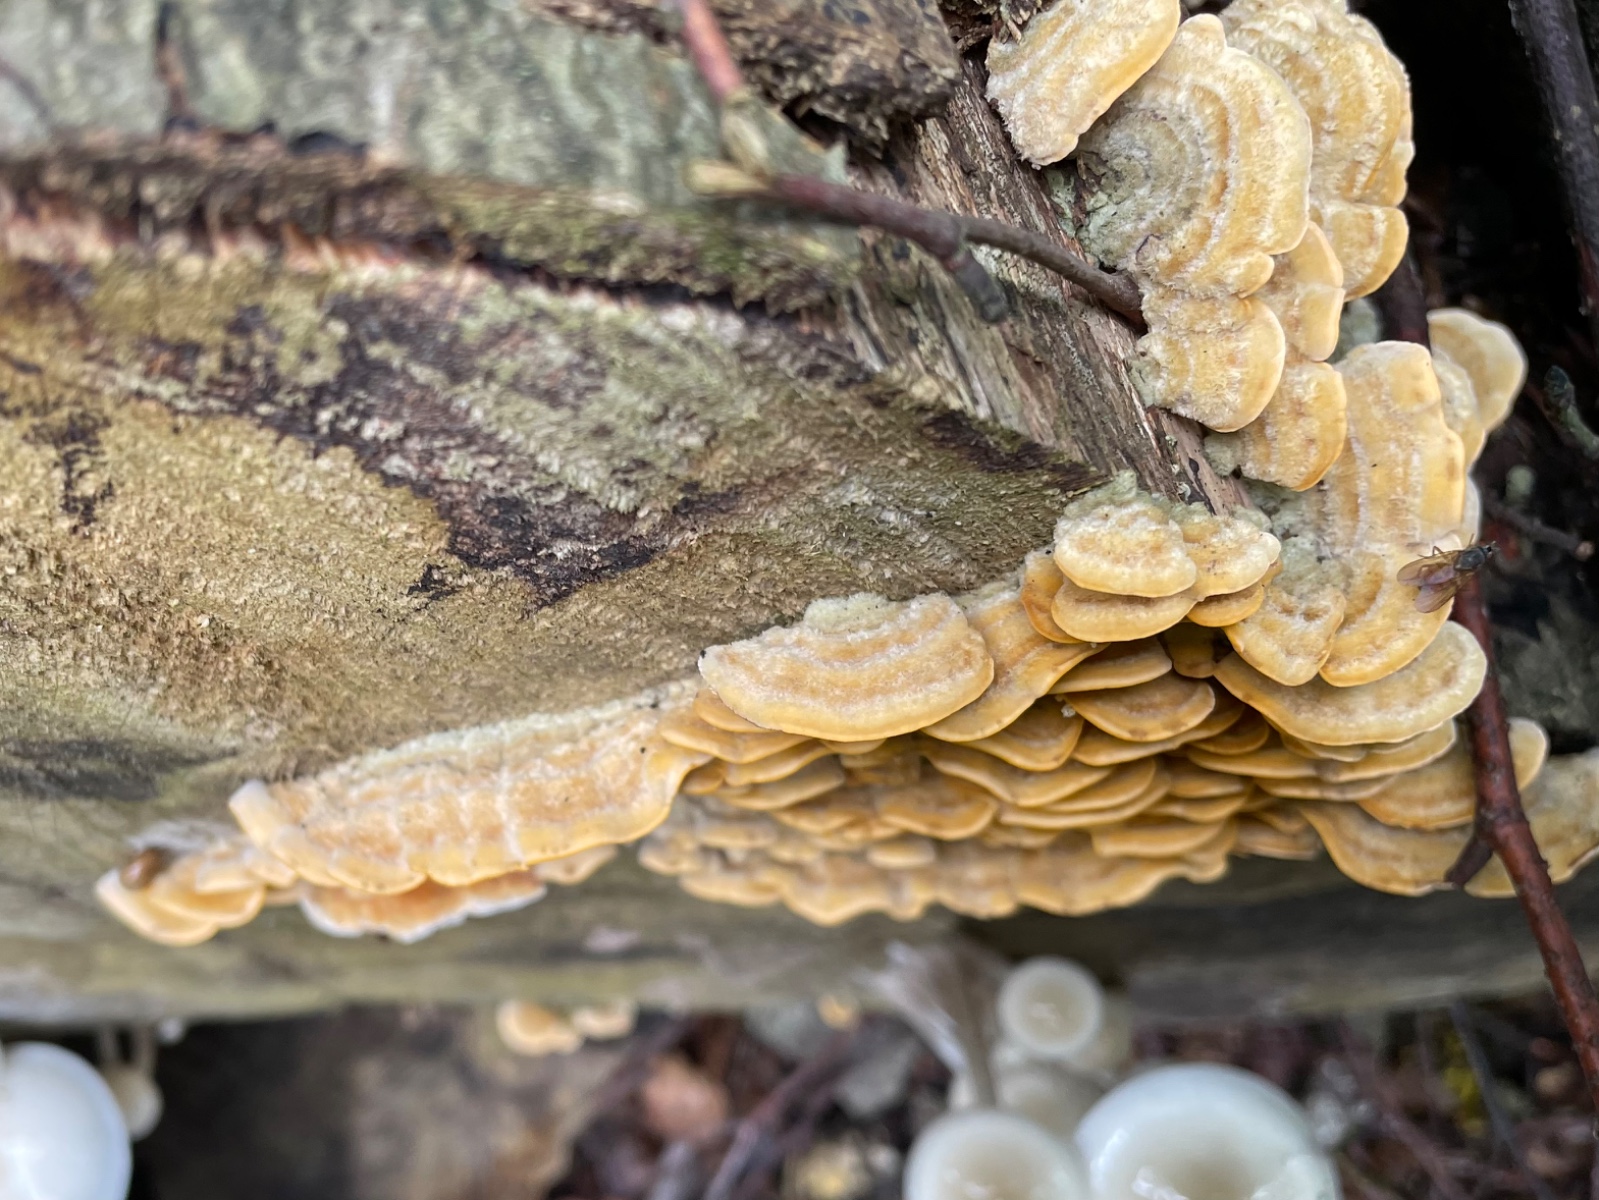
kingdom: Fungi
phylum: Basidiomycota
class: Agaricomycetes
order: Russulales
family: Stereaceae
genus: Stereum
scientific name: Stereum hirsutum
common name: håret lædersvamp
